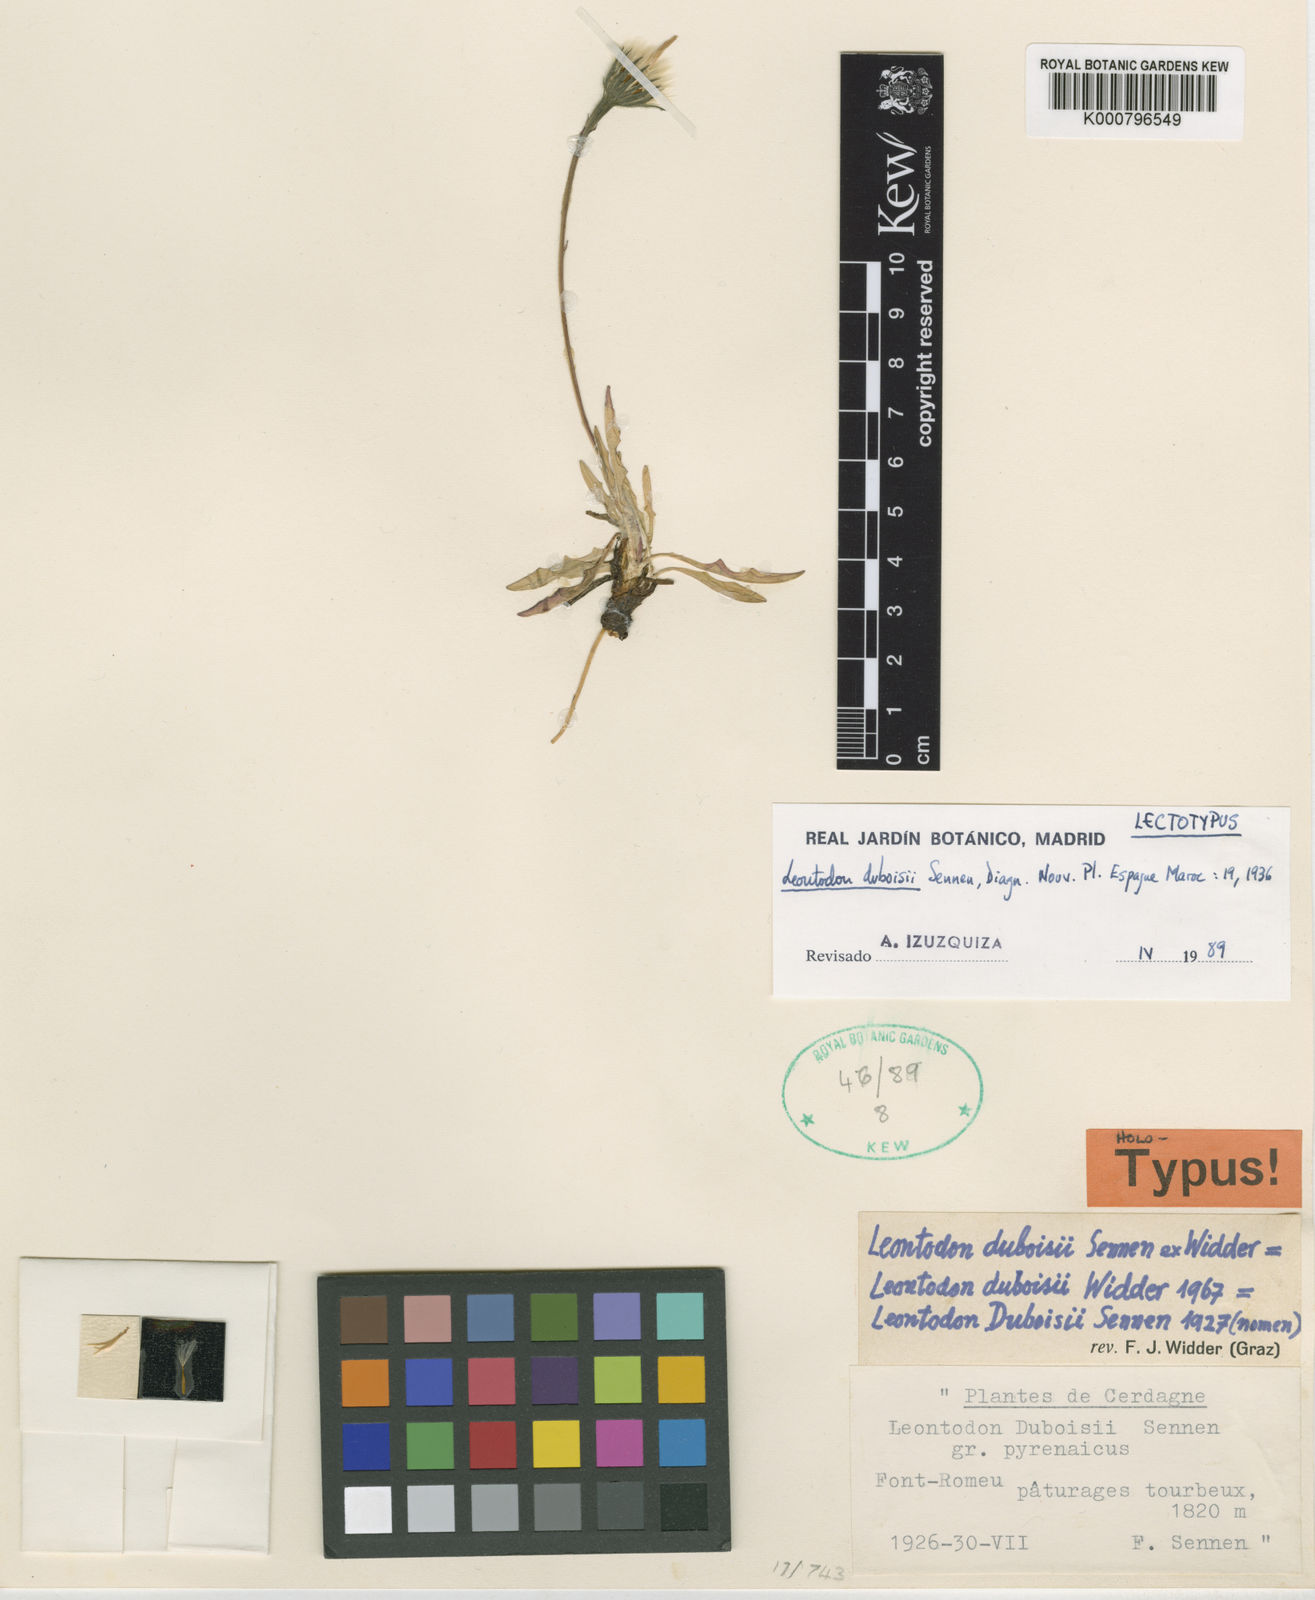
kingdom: Plantae
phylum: Tracheophyta
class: Magnoliopsida
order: Asterales
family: Asteraceae
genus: Scorzoneroides
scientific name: Scorzoneroides carpetana
